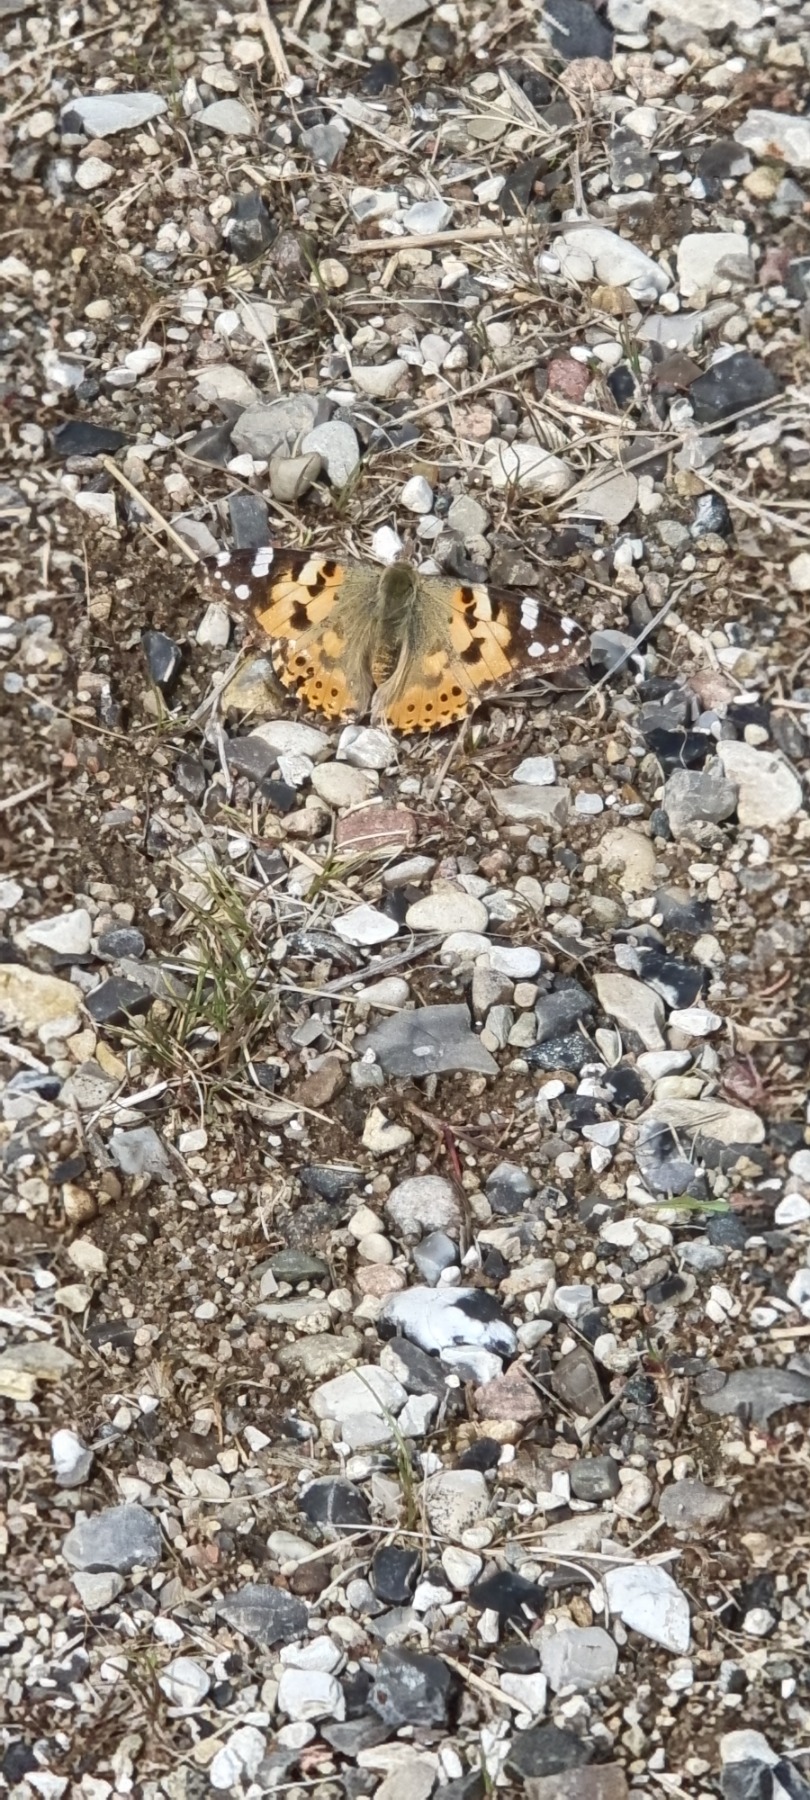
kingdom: Animalia
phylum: Arthropoda
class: Insecta
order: Lepidoptera
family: Nymphalidae
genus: Vanessa
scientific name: Vanessa cardui
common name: Tidselsommerfugl
